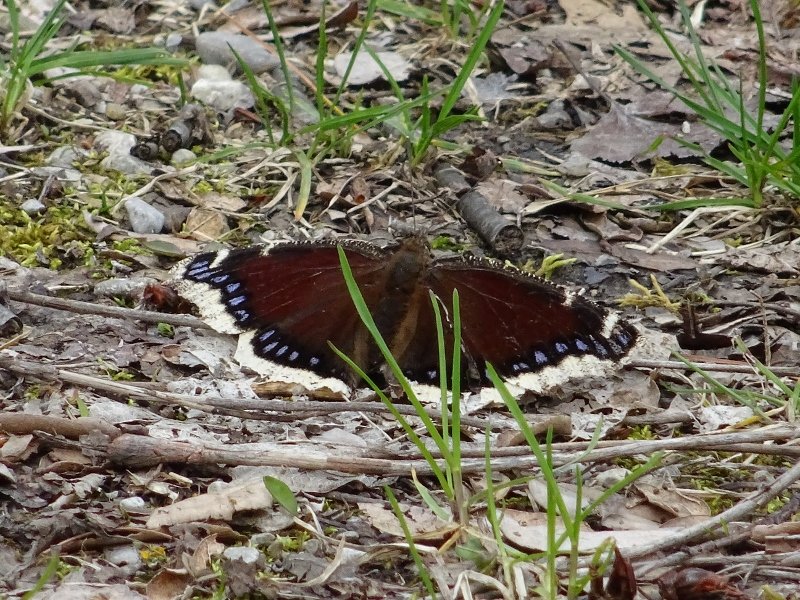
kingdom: Animalia
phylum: Arthropoda
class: Insecta
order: Lepidoptera
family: Nymphalidae
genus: Nymphalis
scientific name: Nymphalis antiopa
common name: Mourning Cloak
